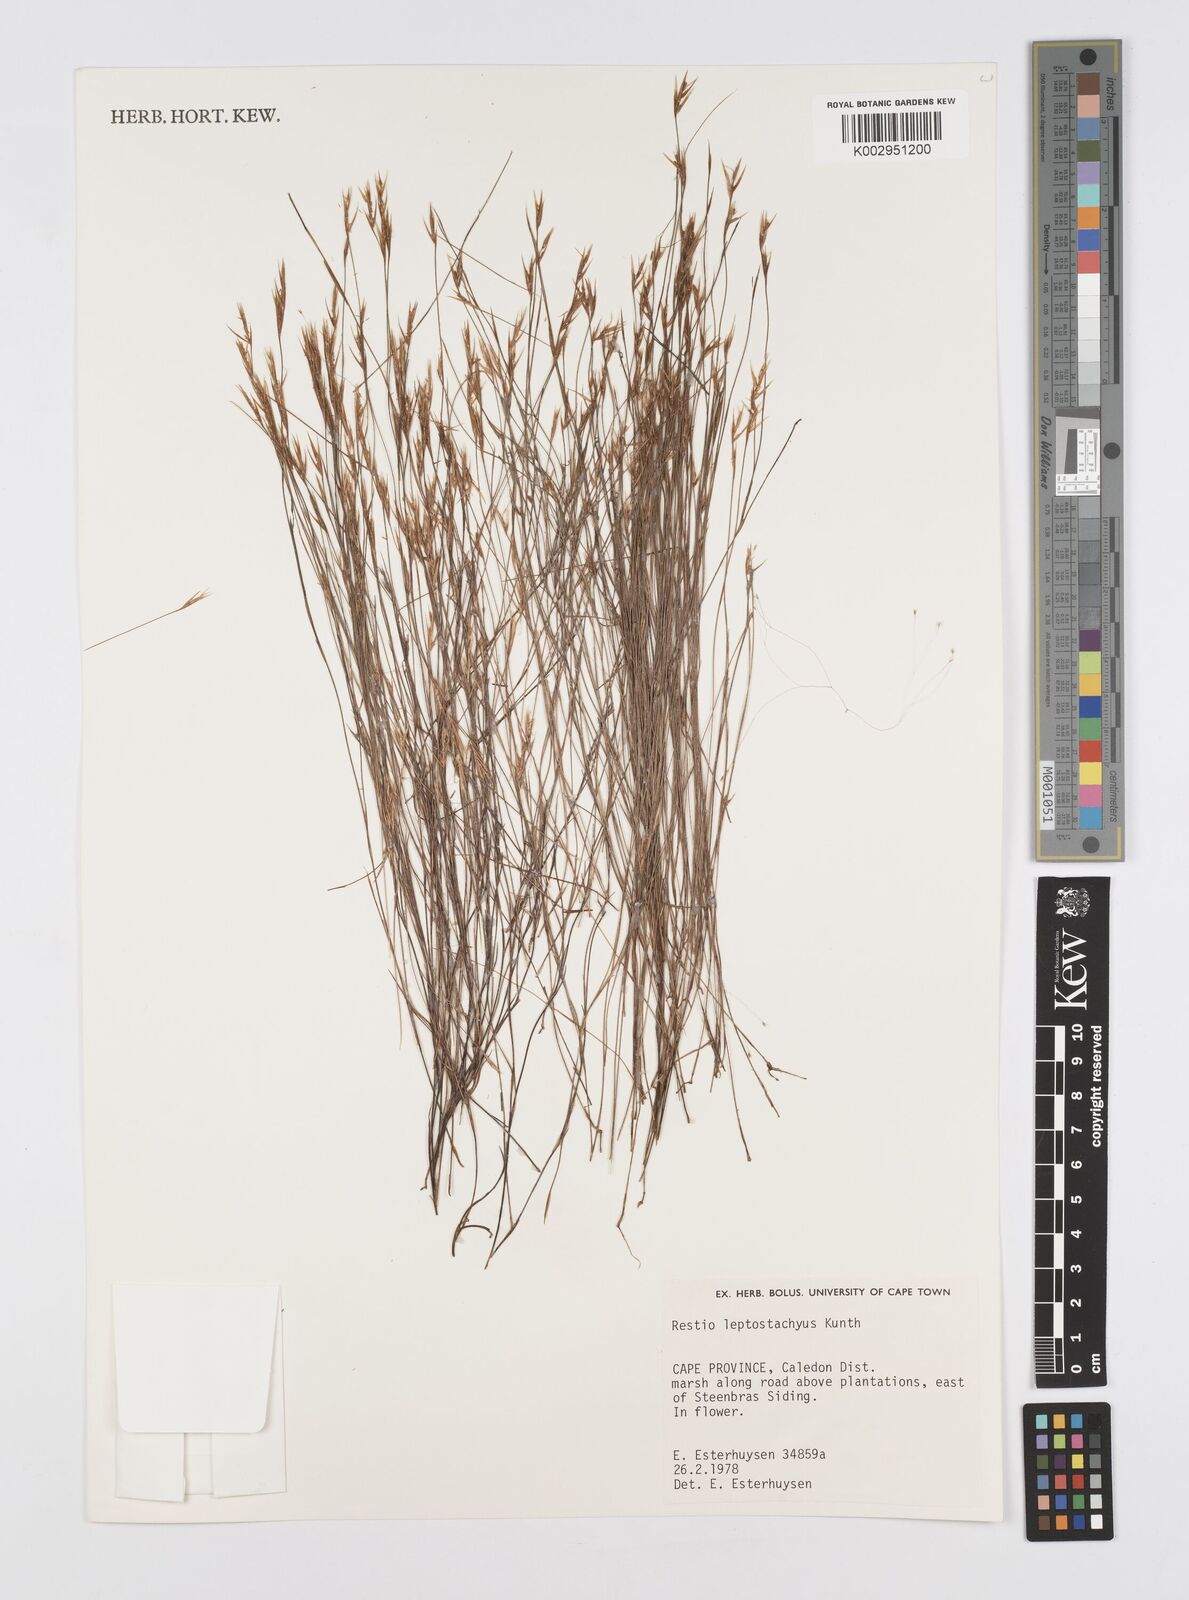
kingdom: Plantae
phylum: Tracheophyta
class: Liliopsida
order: Poales
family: Restionaceae
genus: Restio
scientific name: Restio leptostachyus
